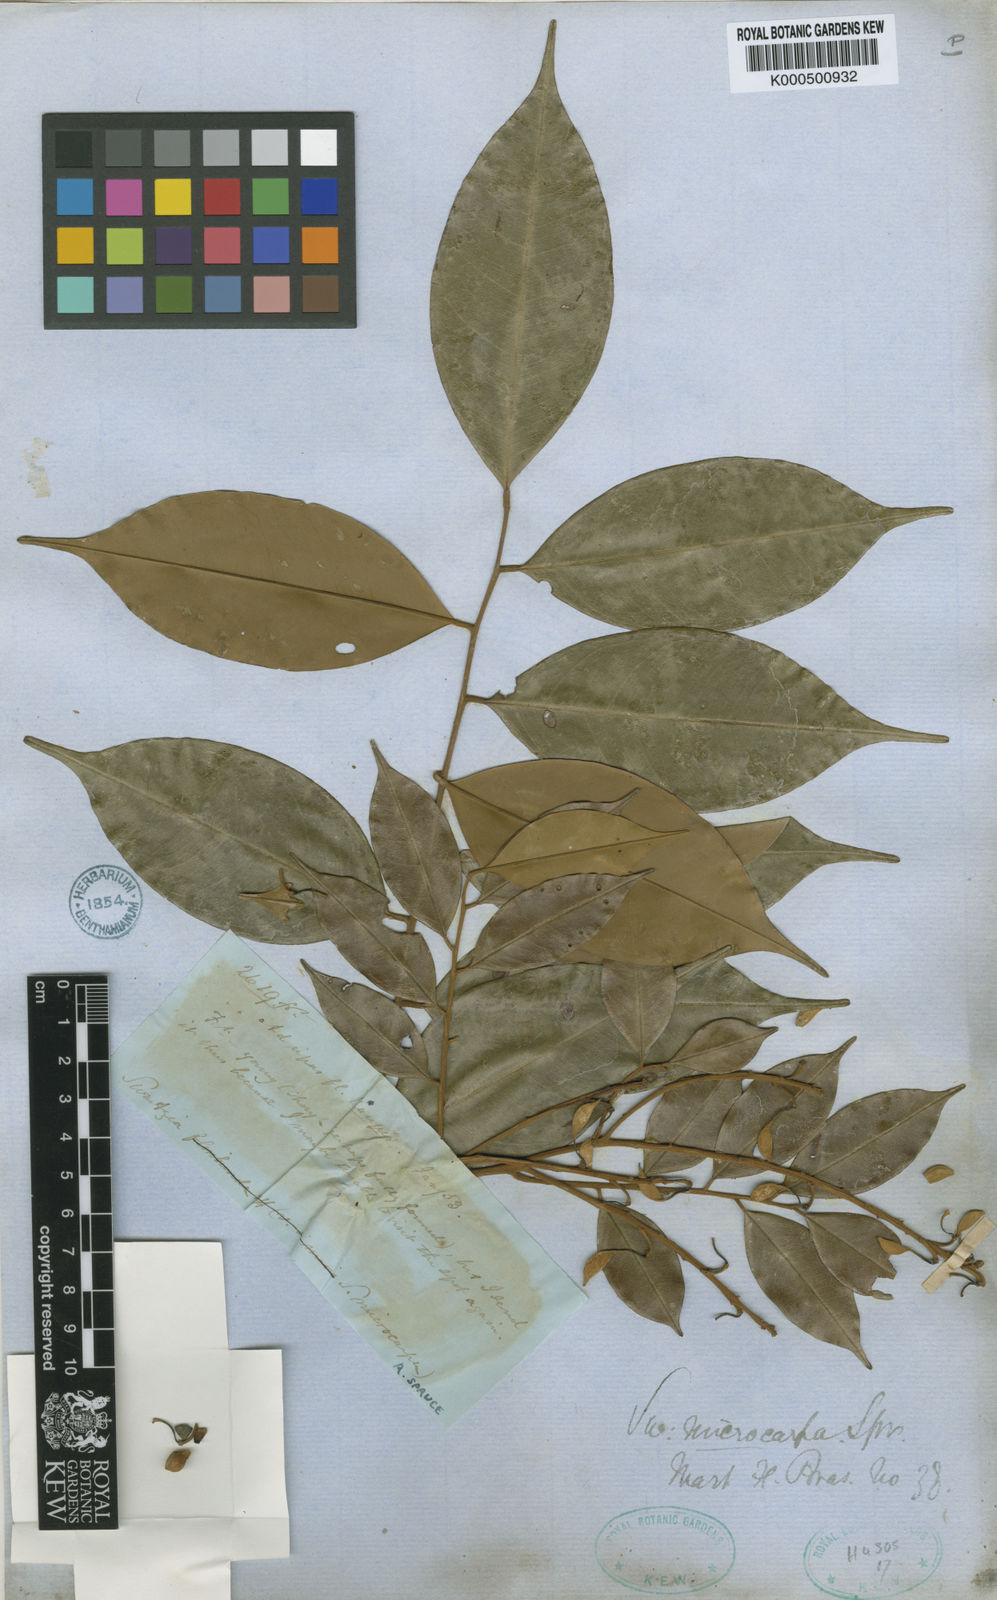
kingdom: Plantae
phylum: Tracheophyta
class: Magnoliopsida
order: Fabales
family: Fabaceae
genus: Swartzia
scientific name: Swartzia microcarpa
